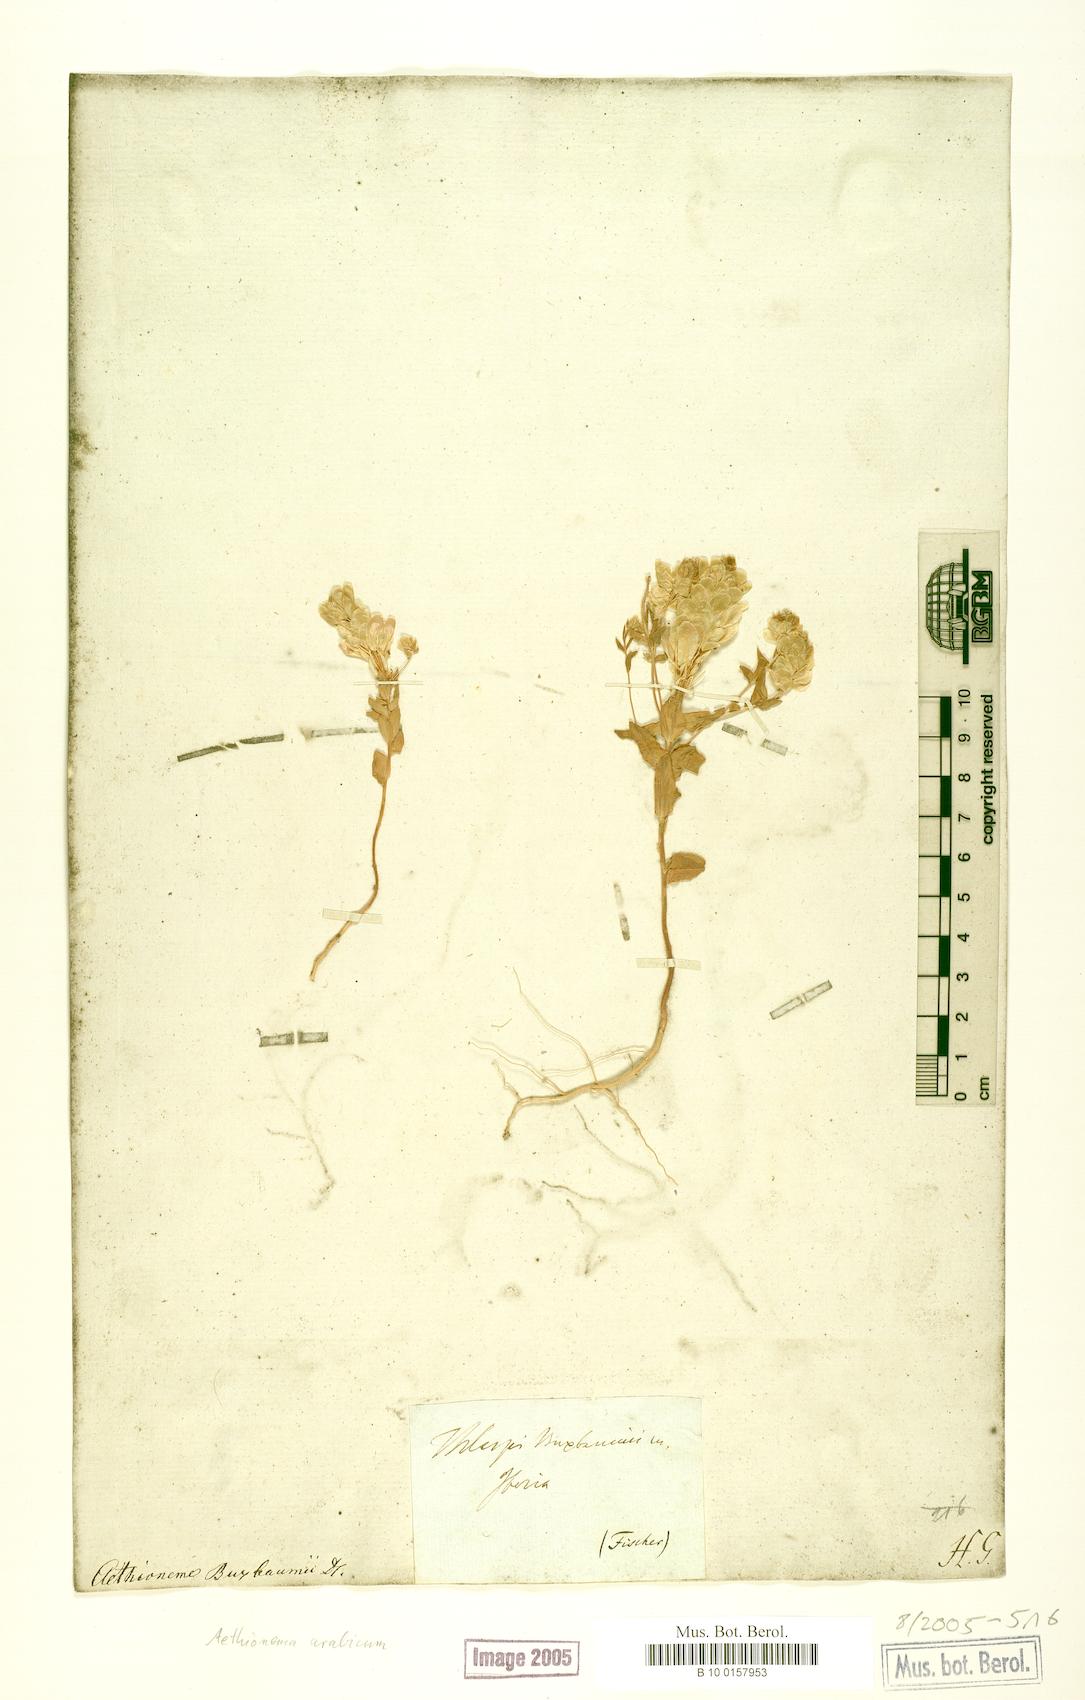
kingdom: Plantae
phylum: Tracheophyta
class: Magnoliopsida
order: Brassicales
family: Brassicaceae
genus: Aethionema
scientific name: Aethionema arabicum
